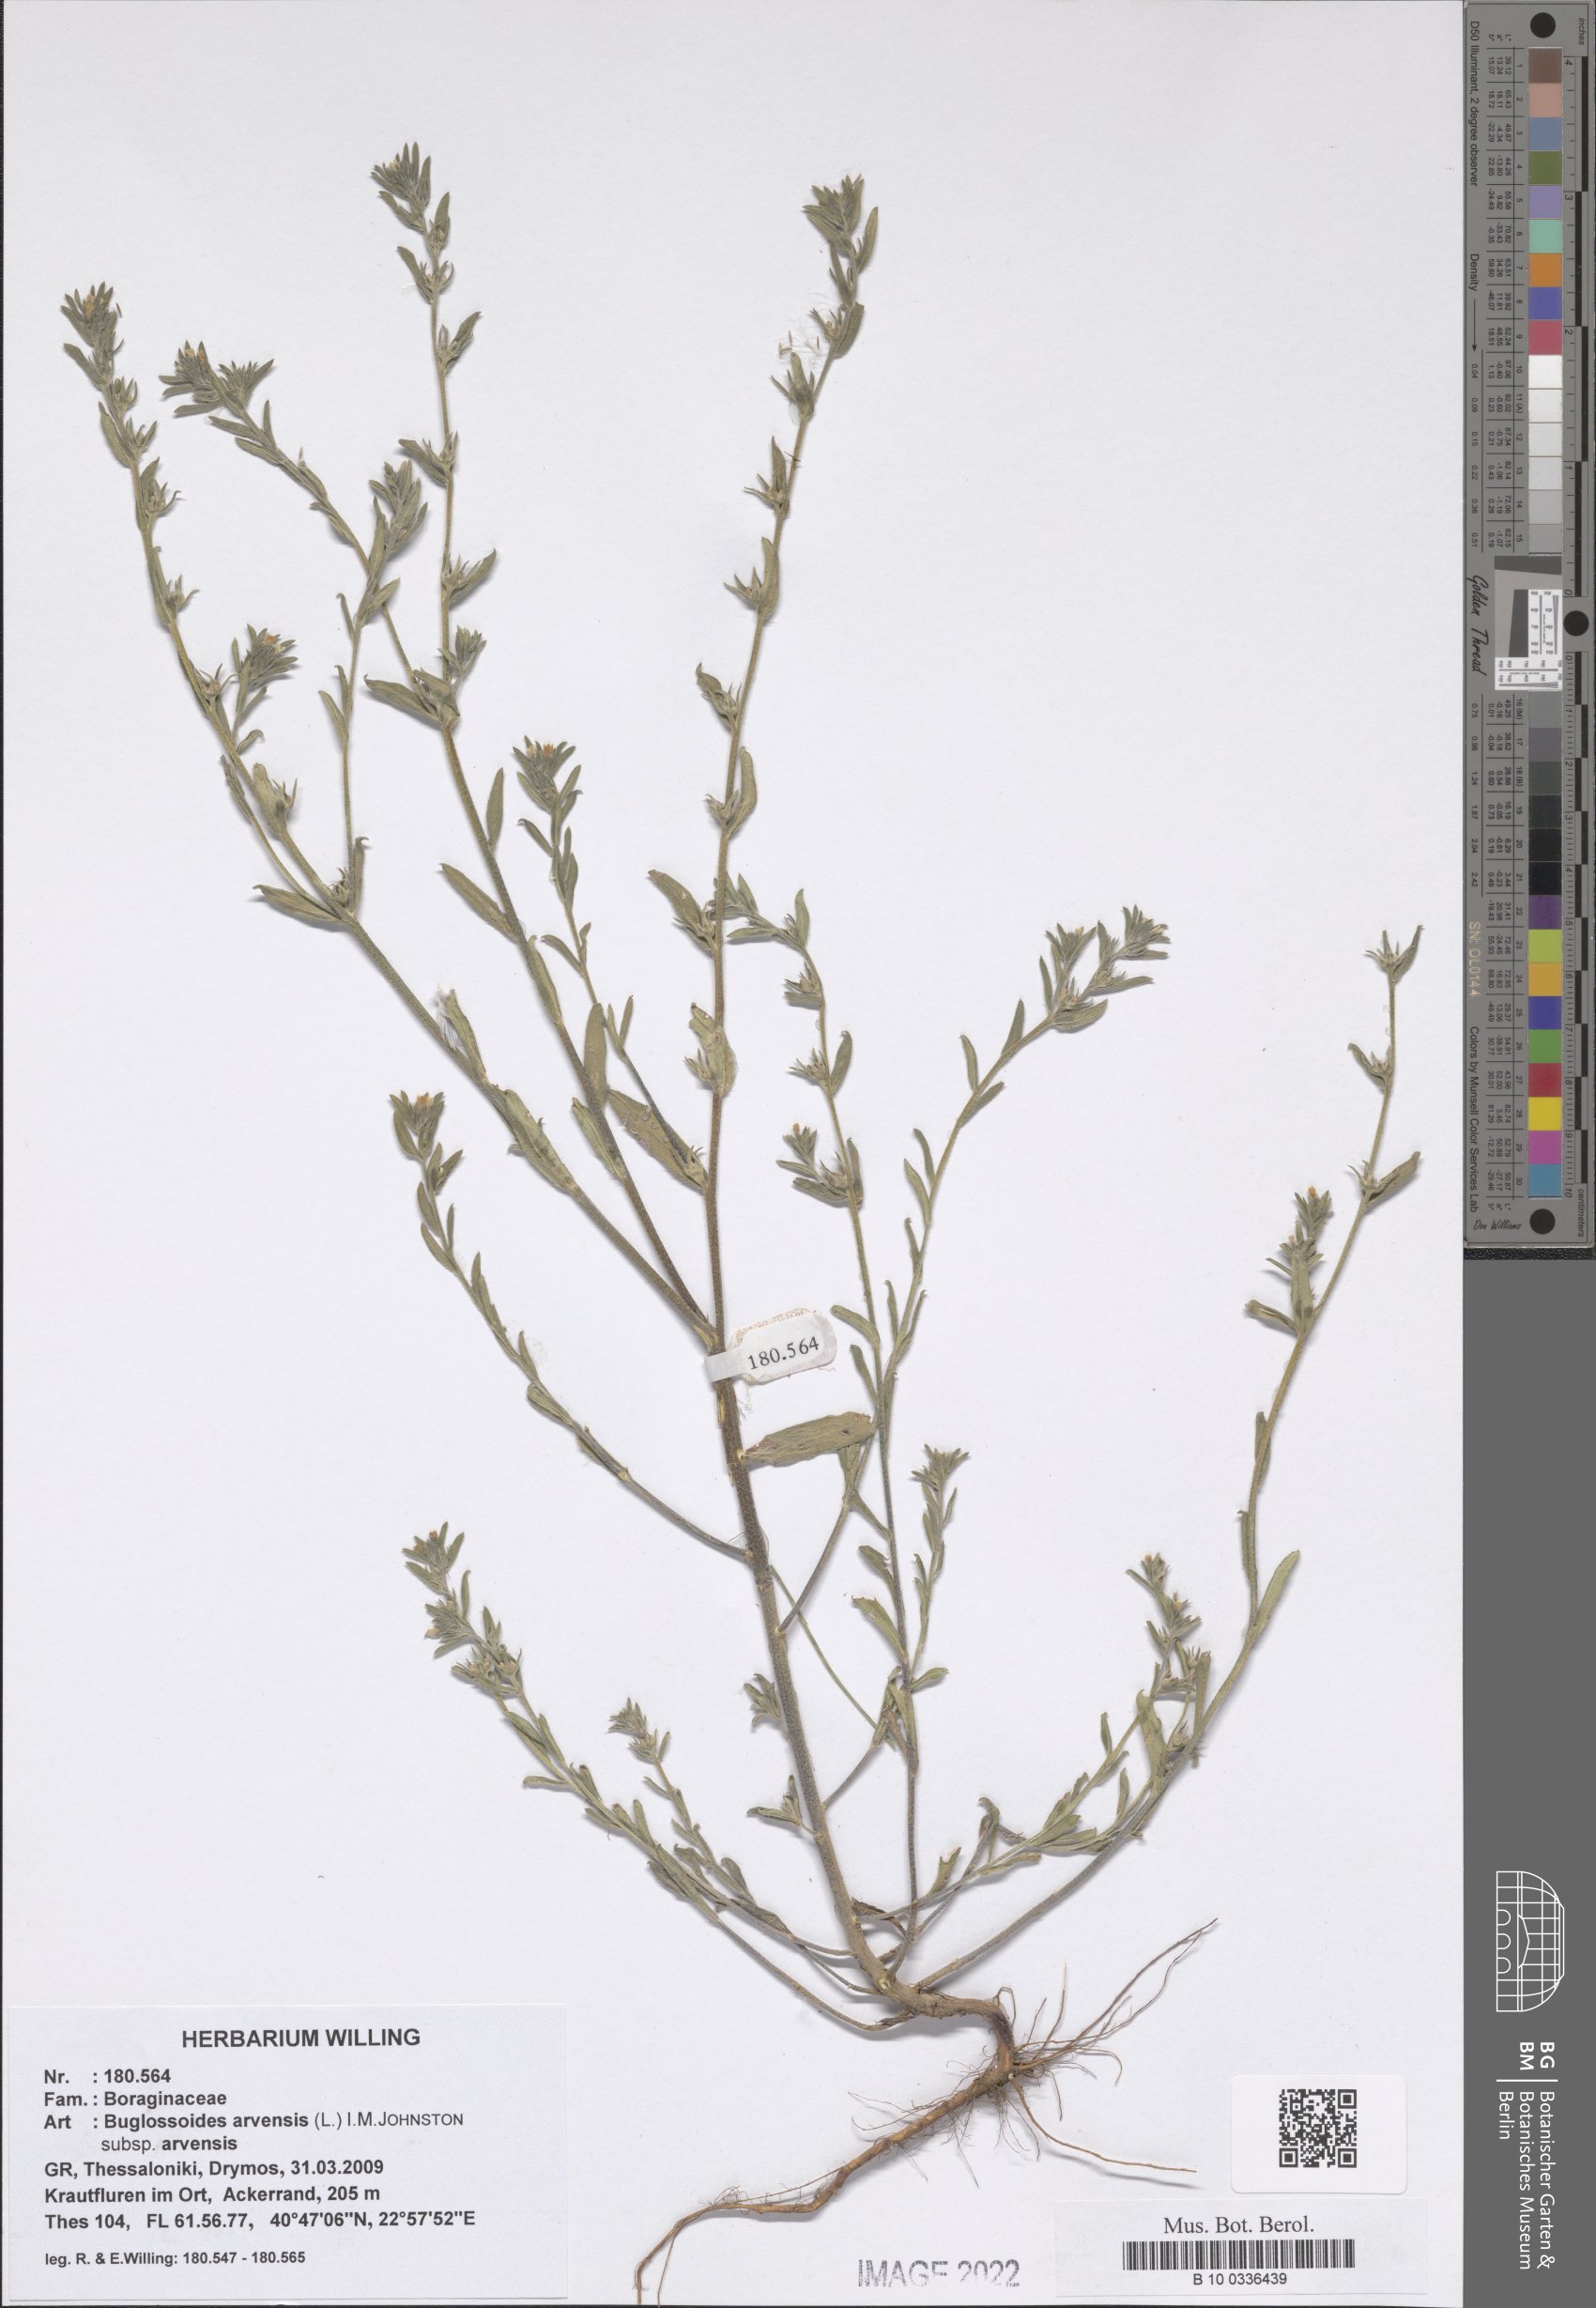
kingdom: Plantae
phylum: Tracheophyta
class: Magnoliopsida
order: Boraginales
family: Boraginaceae
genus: Buglossoides
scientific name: Buglossoides arvensis
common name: Corn gromwell
